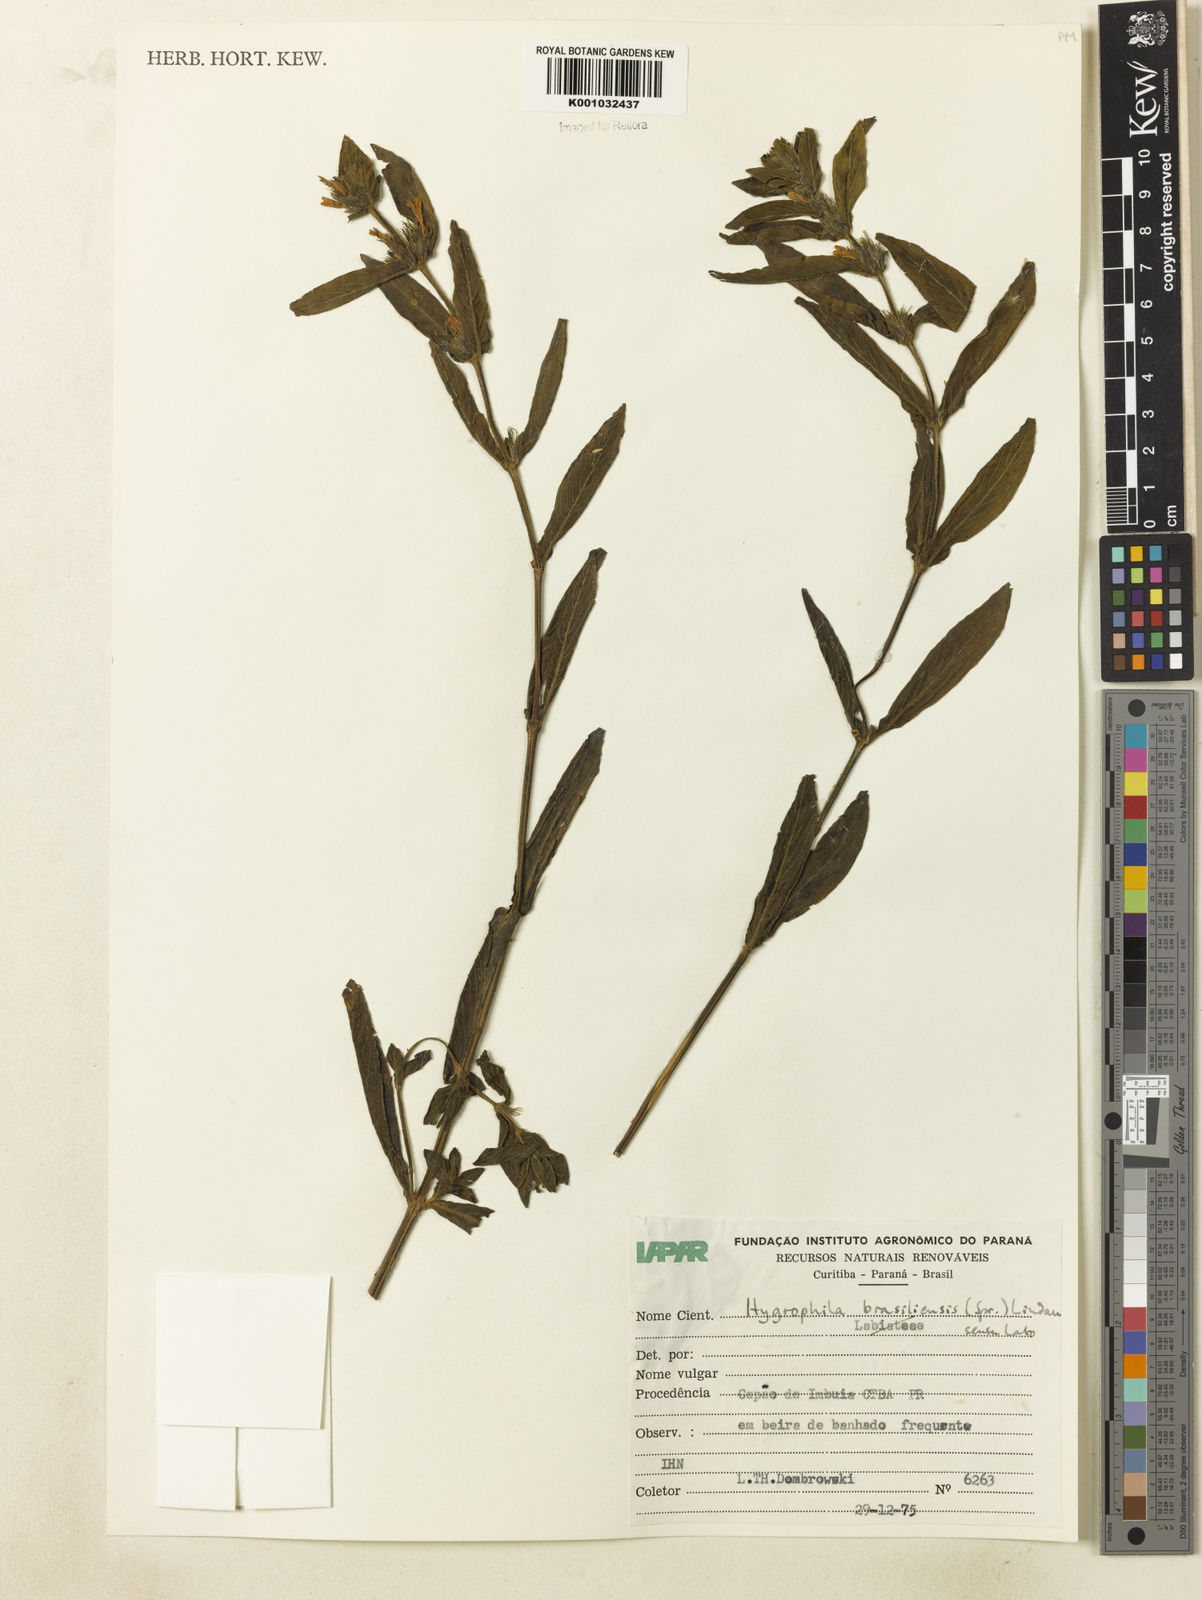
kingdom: Plantae
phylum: Tracheophyta
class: Magnoliopsida
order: Lamiales
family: Acanthaceae
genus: Hygrophila
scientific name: Hygrophila costata
